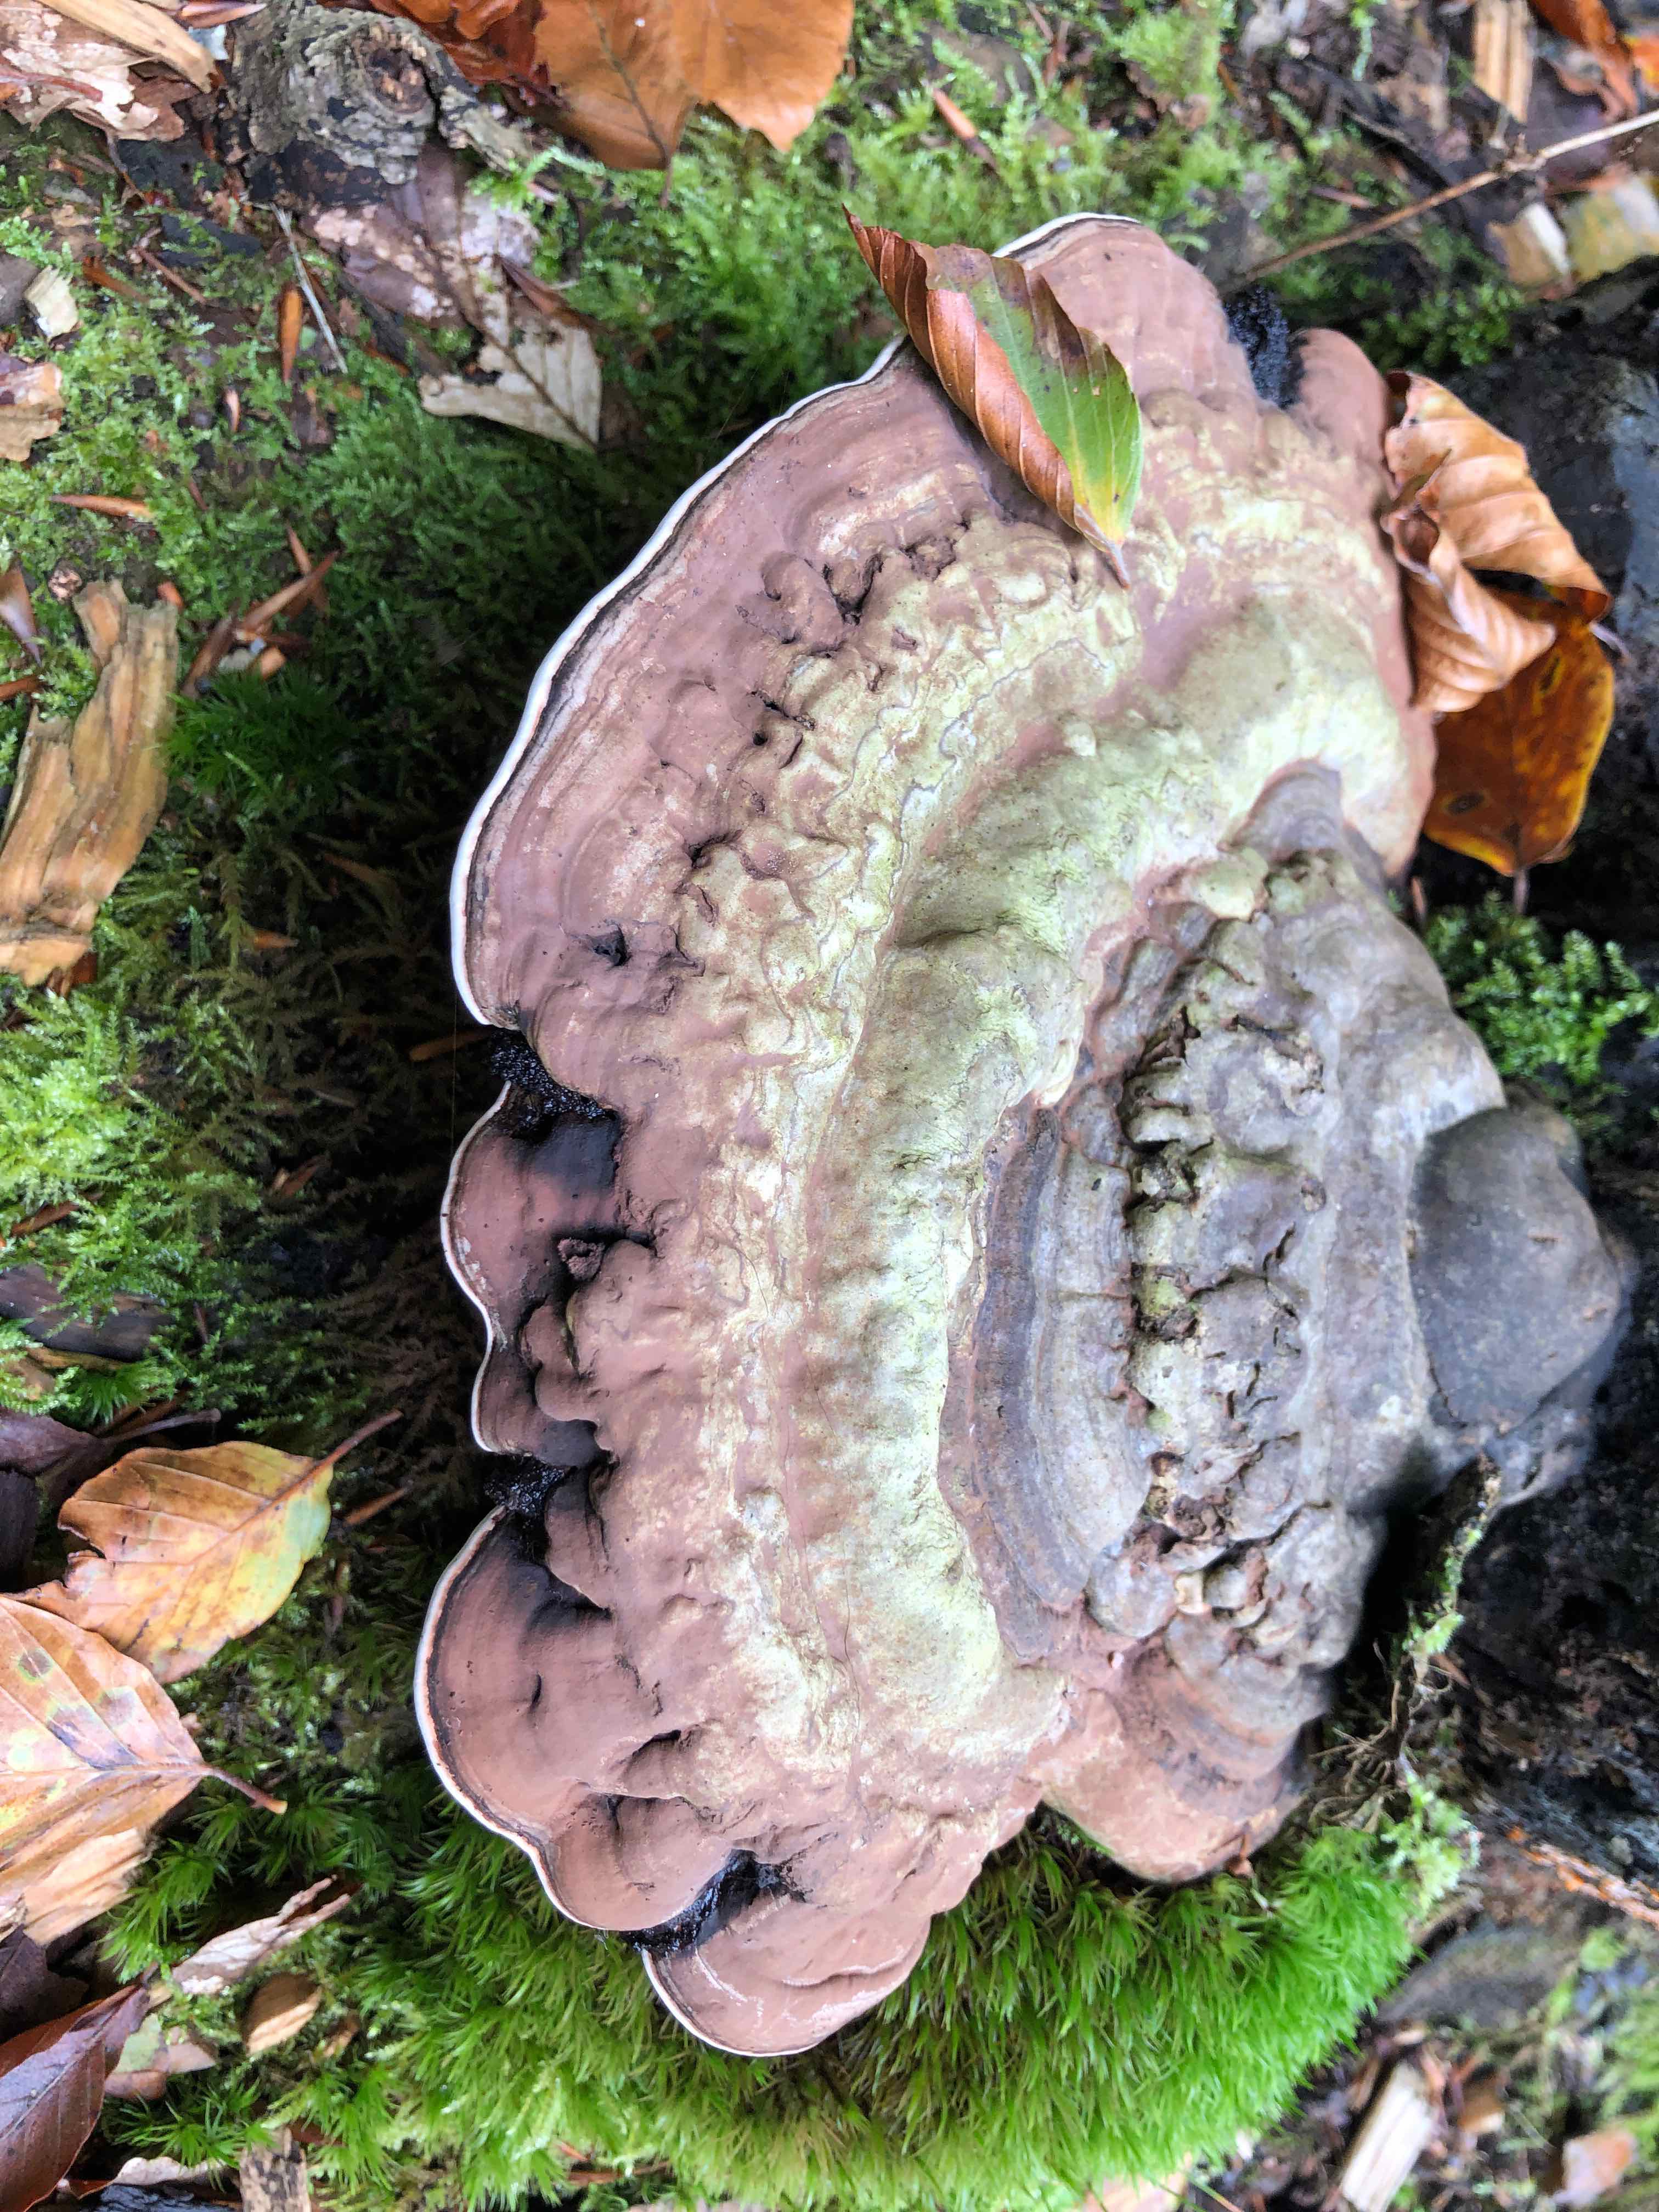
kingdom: Fungi
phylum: Basidiomycota
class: Agaricomycetes
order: Polyporales
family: Polyporaceae
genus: Ganoderma
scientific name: Ganoderma applanatum
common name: flad lakporesvamp
